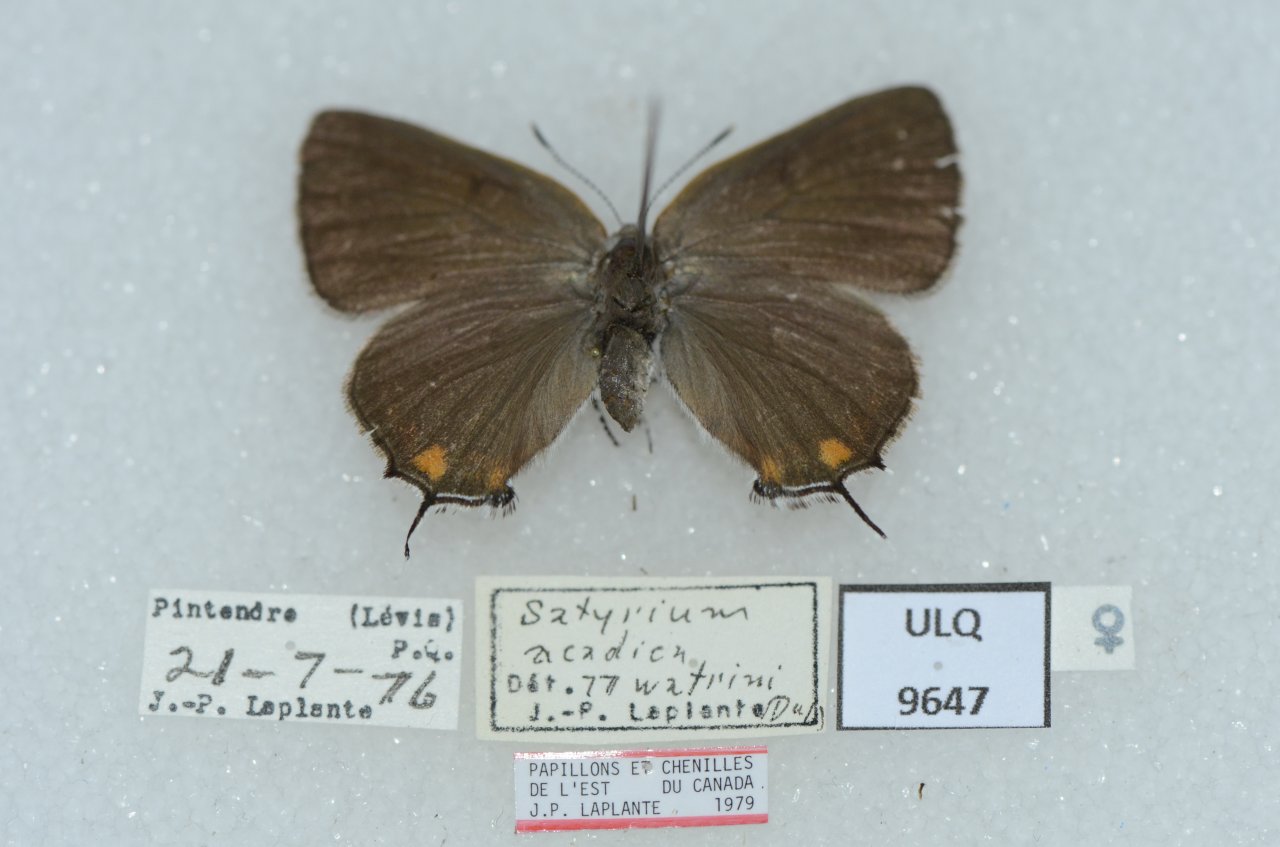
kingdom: Animalia
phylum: Arthropoda
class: Insecta
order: Lepidoptera
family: Lycaenidae
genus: Strymon
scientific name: Strymon acadica
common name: Acadian Hairstreak
